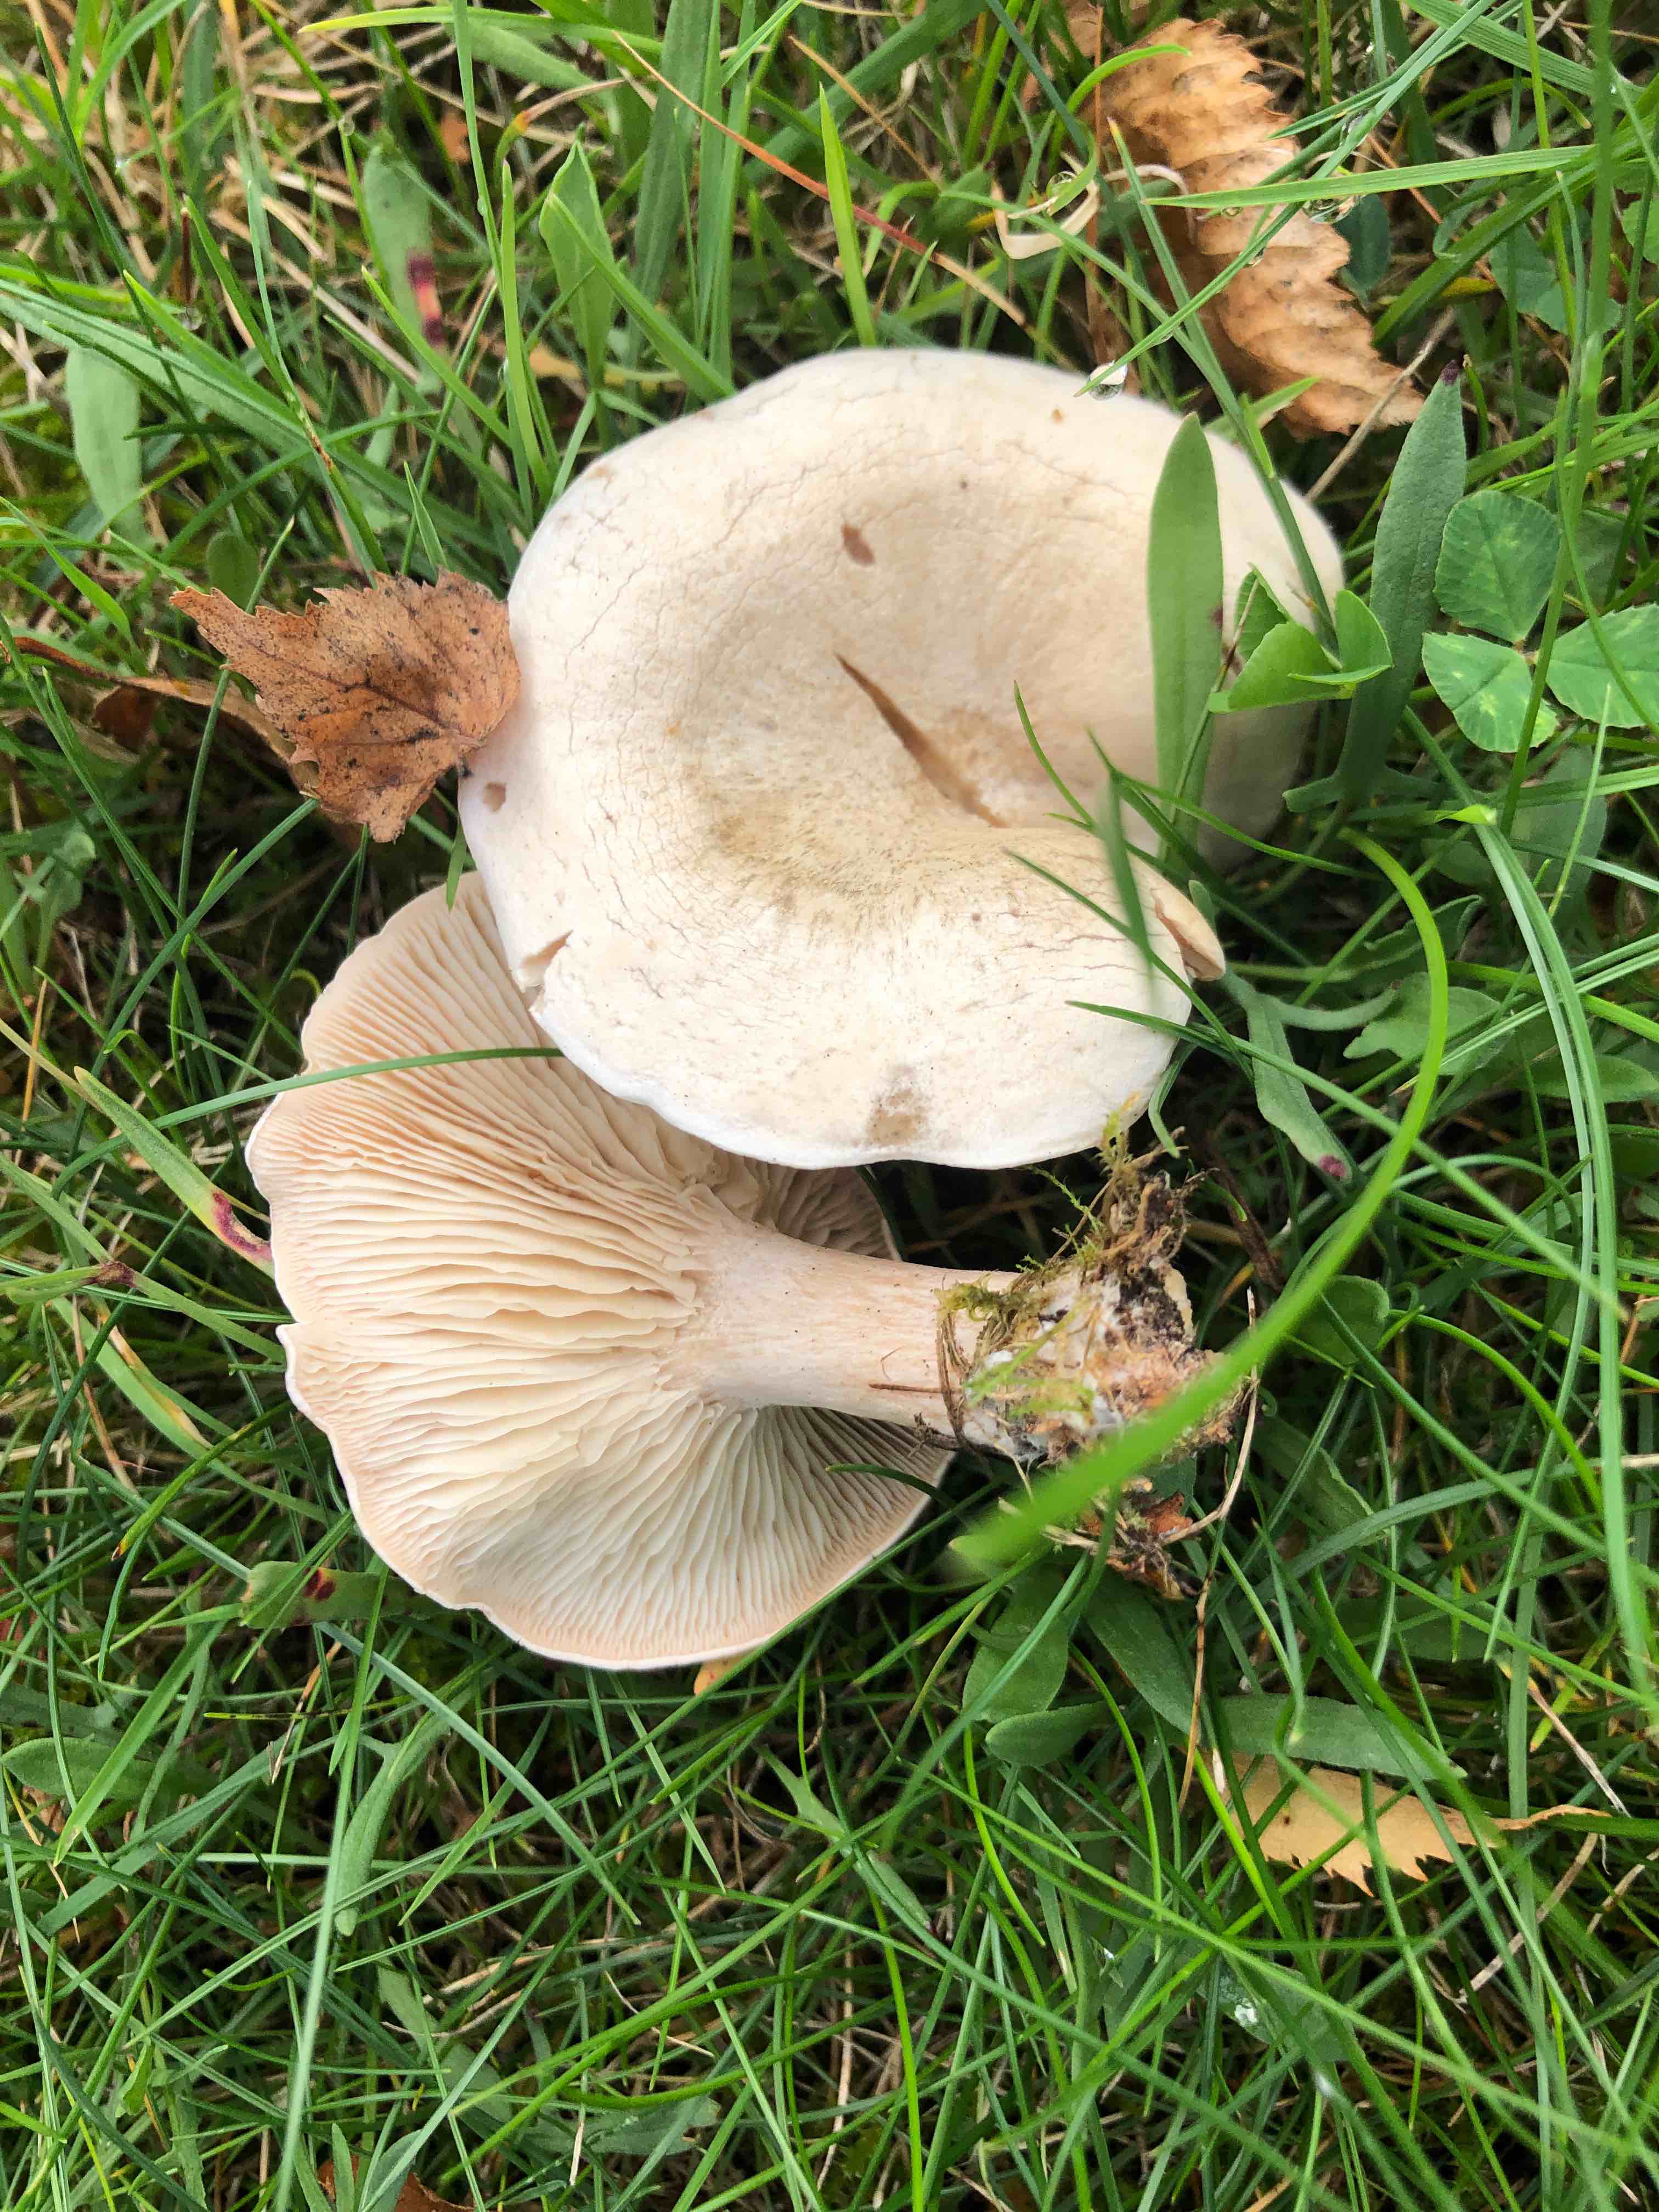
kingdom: Fungi
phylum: Basidiomycota
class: Agaricomycetes
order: Agaricales
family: Tricholomataceae
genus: Clitocybe
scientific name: Clitocybe rivulosa
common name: eng-tragthat
